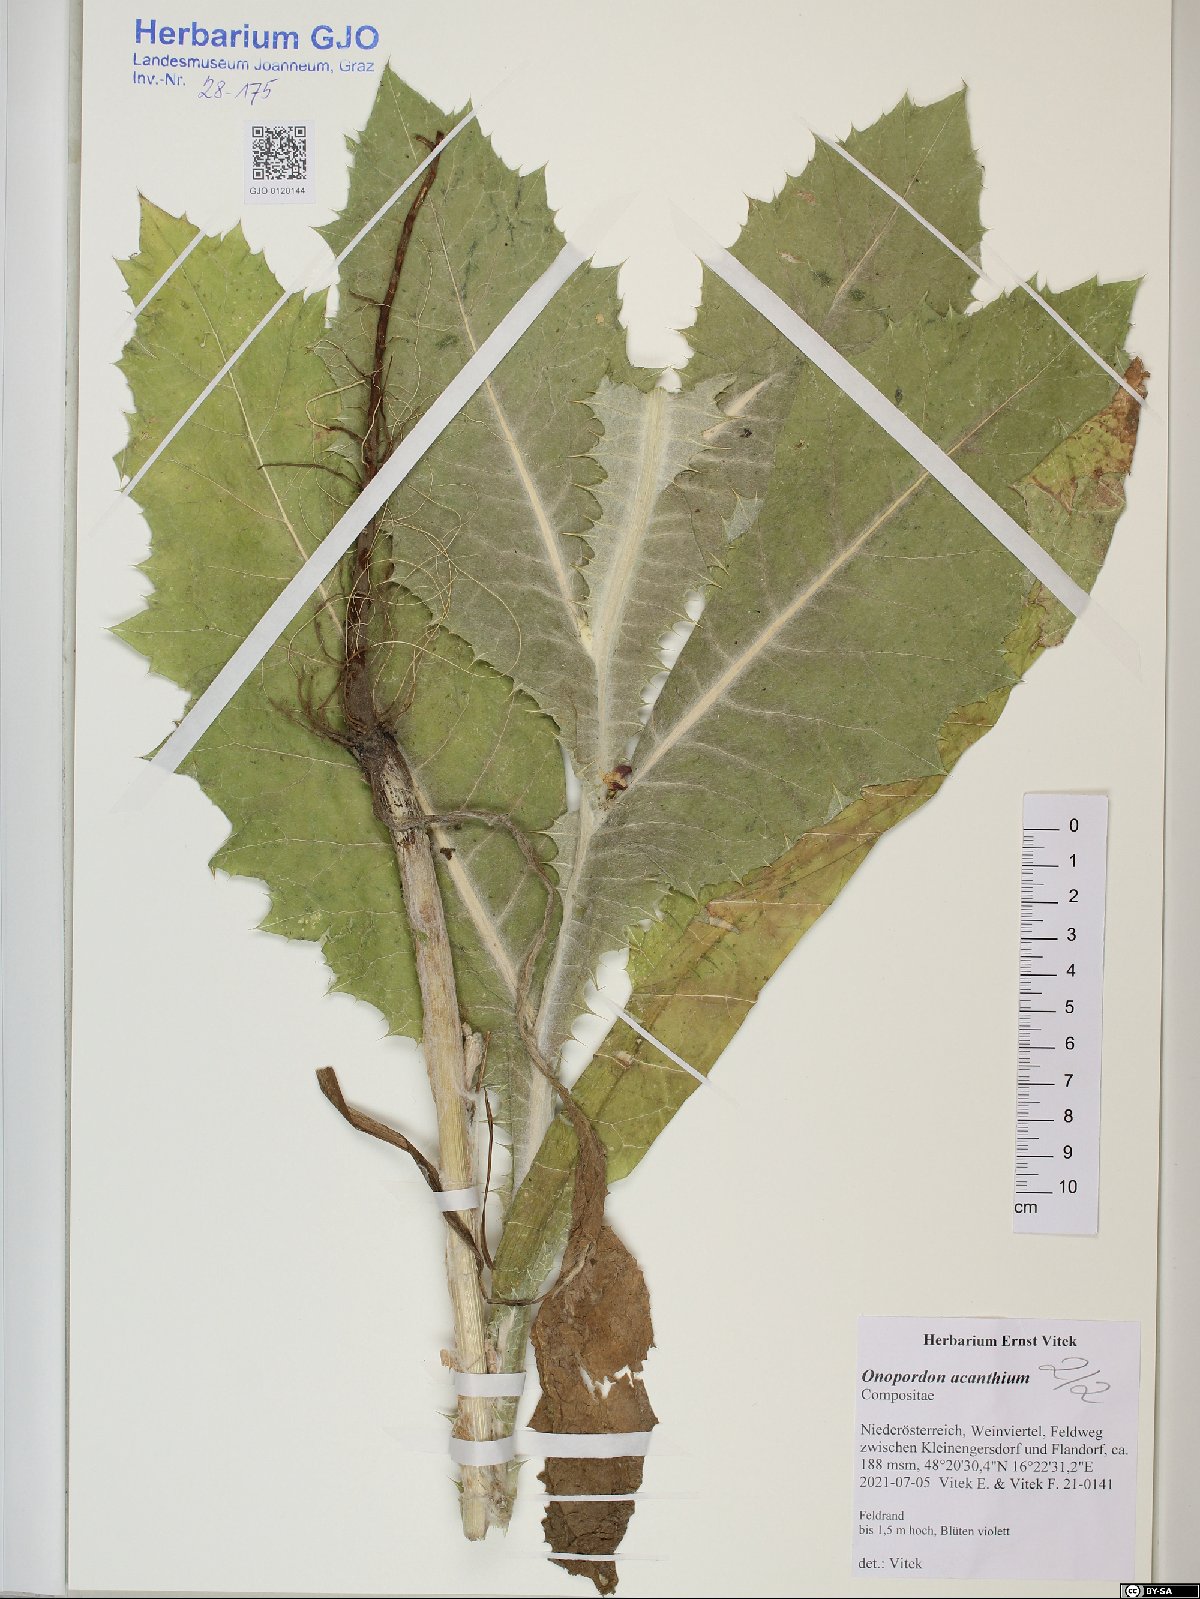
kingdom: Plantae
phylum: Tracheophyta
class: Magnoliopsida
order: Asterales
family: Asteraceae
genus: Onopordum
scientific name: Onopordum acanthium
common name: Scotch thistle
